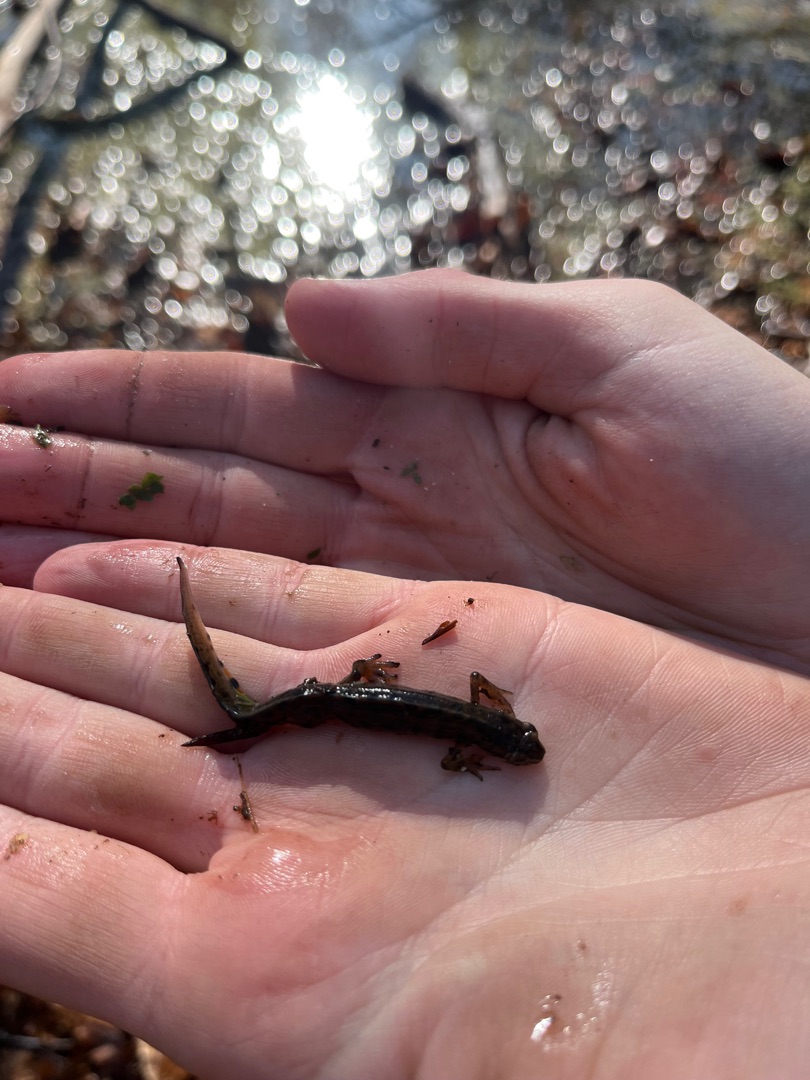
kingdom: Animalia
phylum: Chordata
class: Amphibia
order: Caudata
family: Salamandridae
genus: Lissotriton
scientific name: Lissotriton vulgaris
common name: Lille vandsalamander
